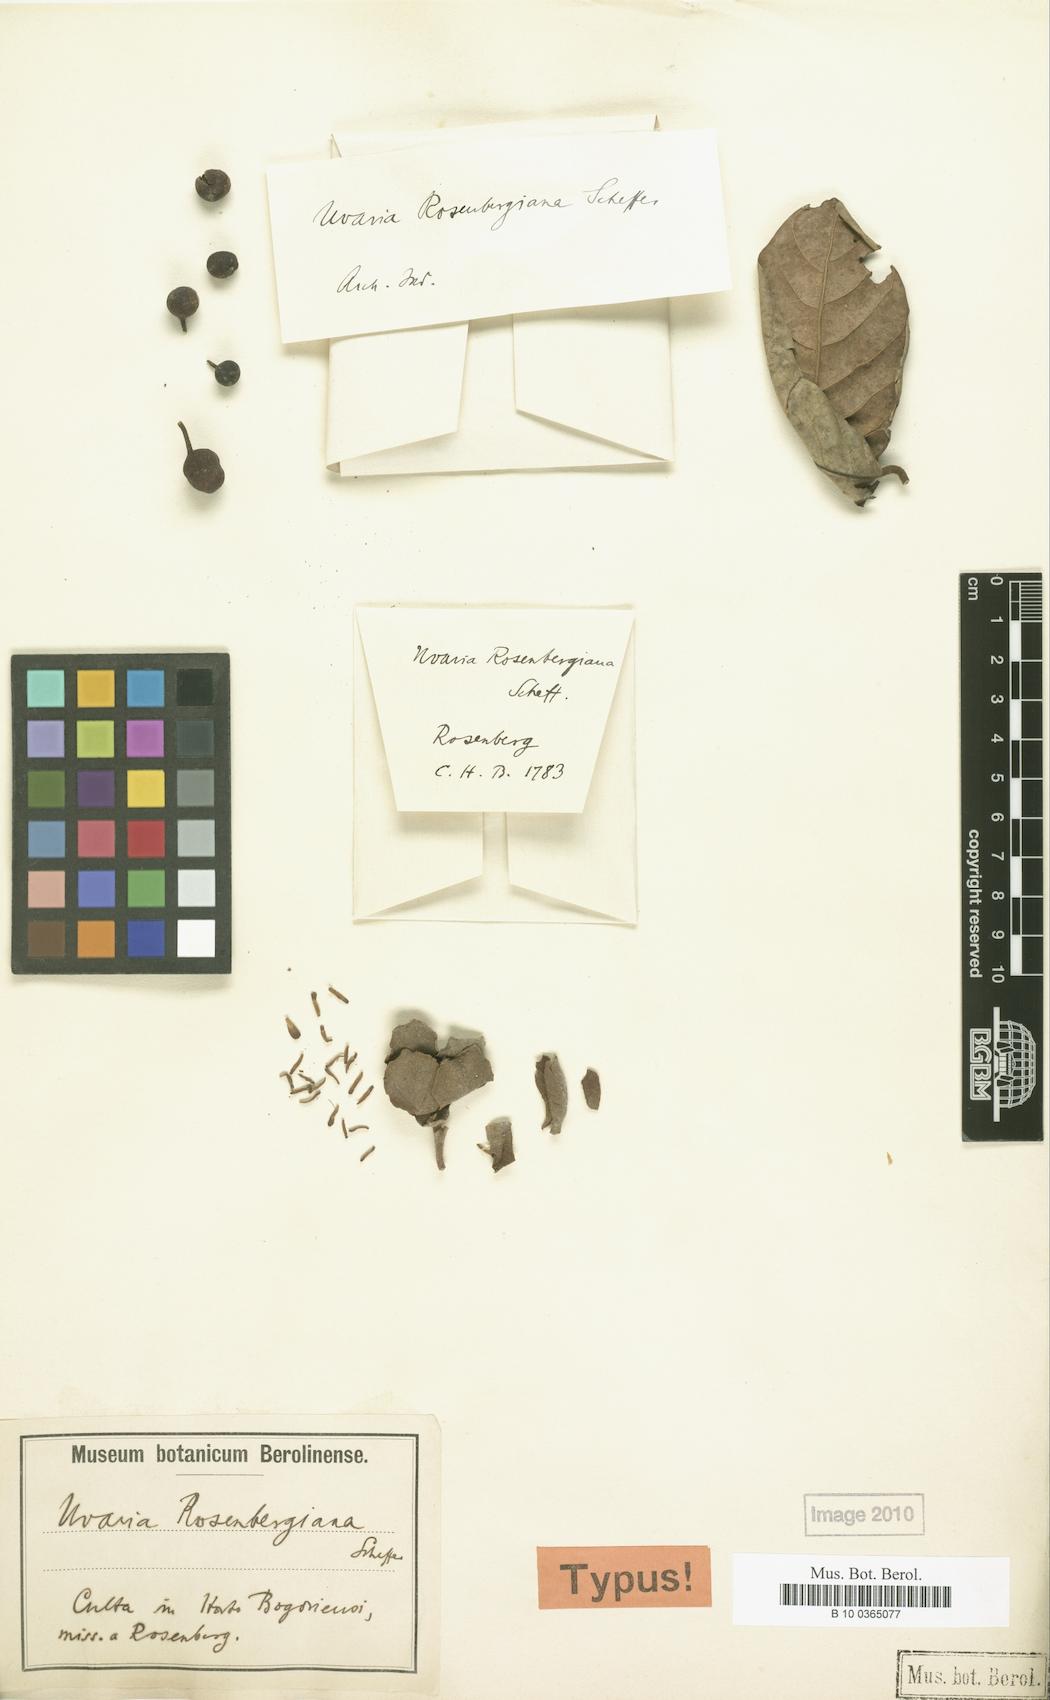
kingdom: Plantae
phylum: Tracheophyta
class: Magnoliopsida
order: Magnoliales
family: Annonaceae
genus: Uvaria
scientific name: Uvaria rosenbergiana
